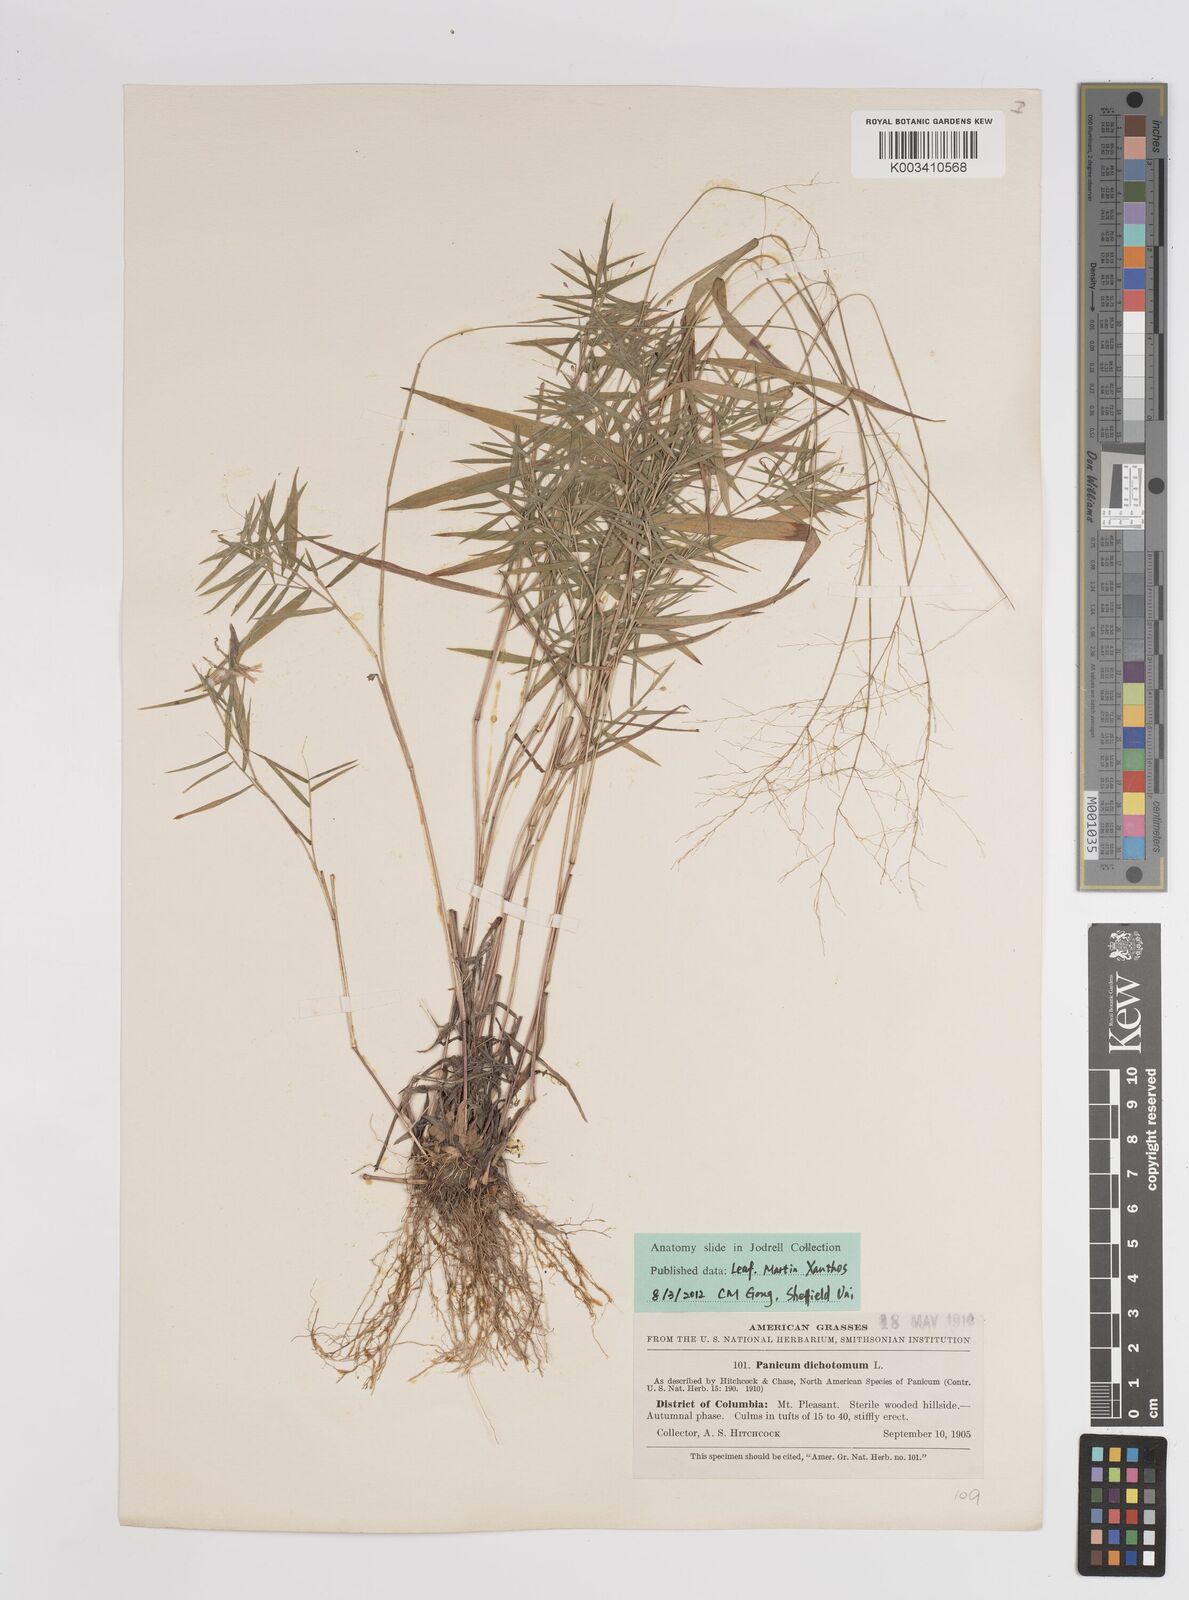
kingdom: Plantae
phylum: Tracheophyta
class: Liliopsida
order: Poales
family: Poaceae
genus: Dichanthelium
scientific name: Dichanthelium dichotomum
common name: Cypress panicgrass
